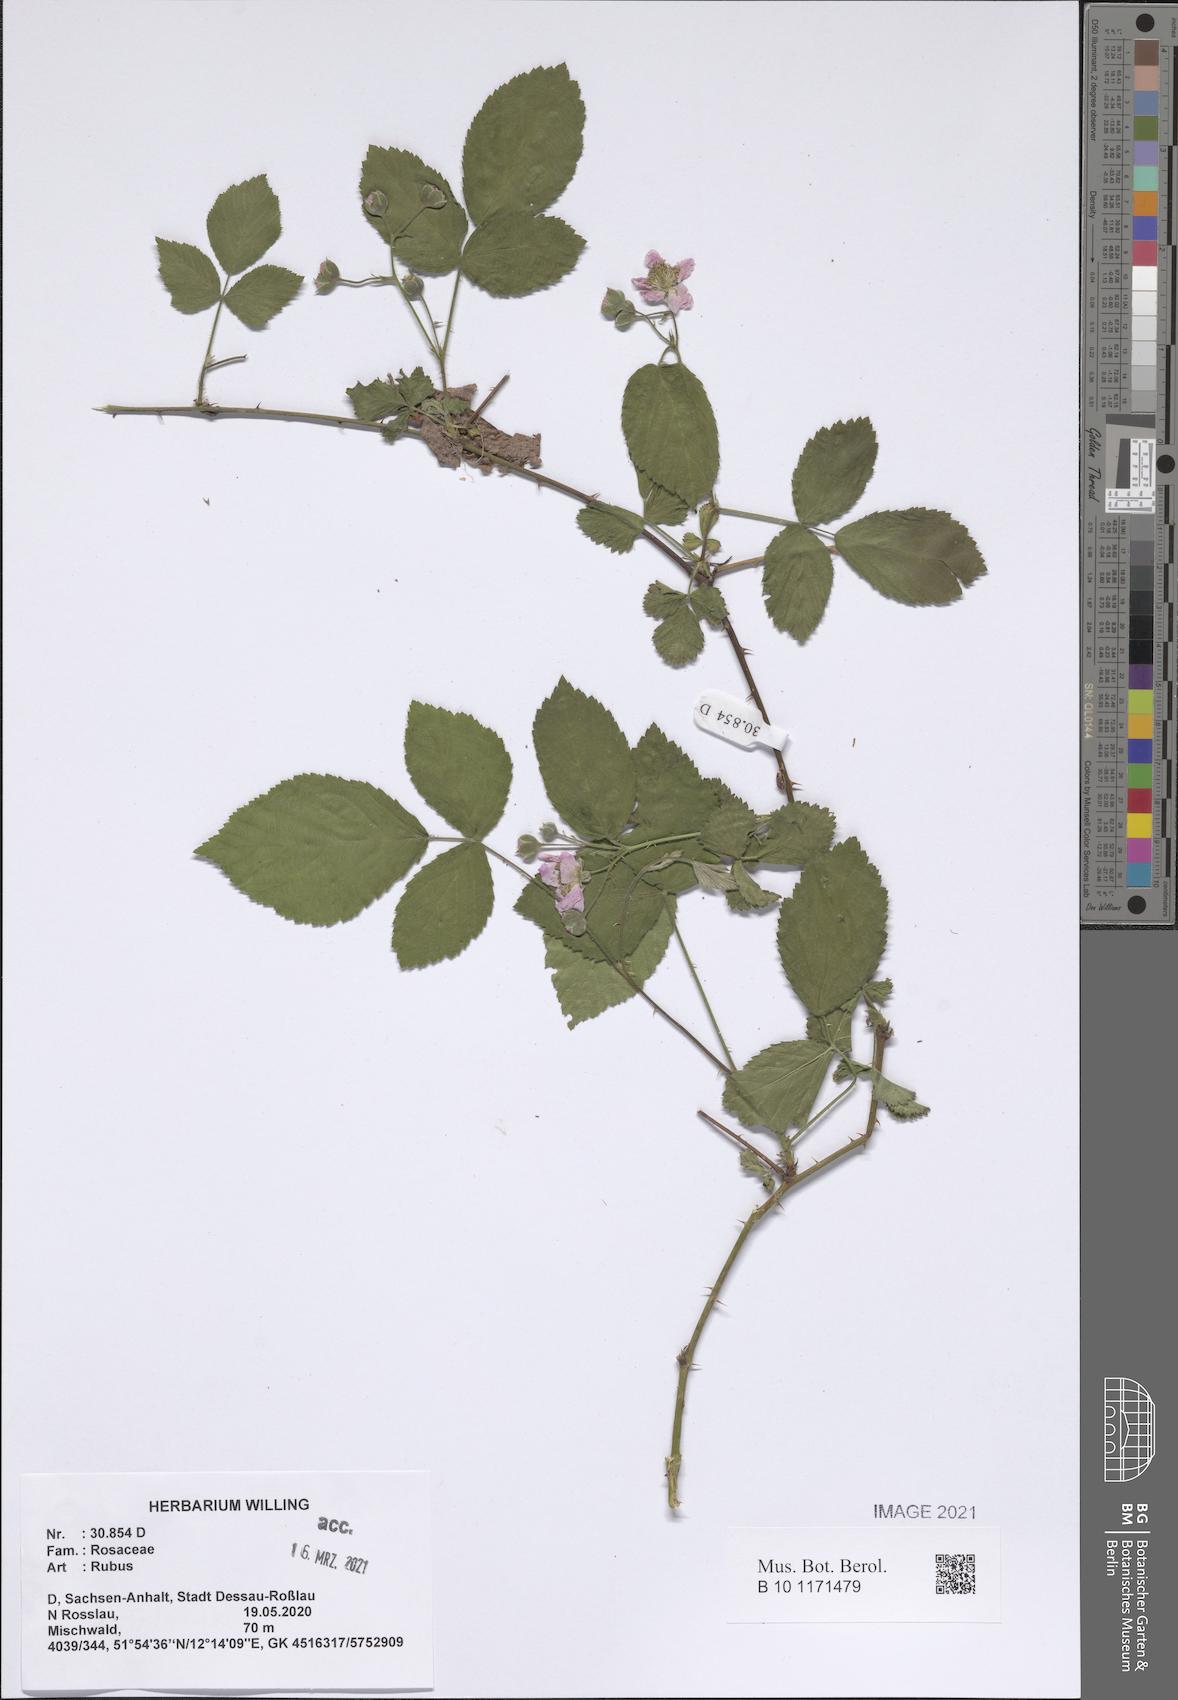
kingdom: Plantae
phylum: Tracheophyta
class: Magnoliopsida
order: Rosales
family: Rosaceae
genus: Rubus
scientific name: Rubus
